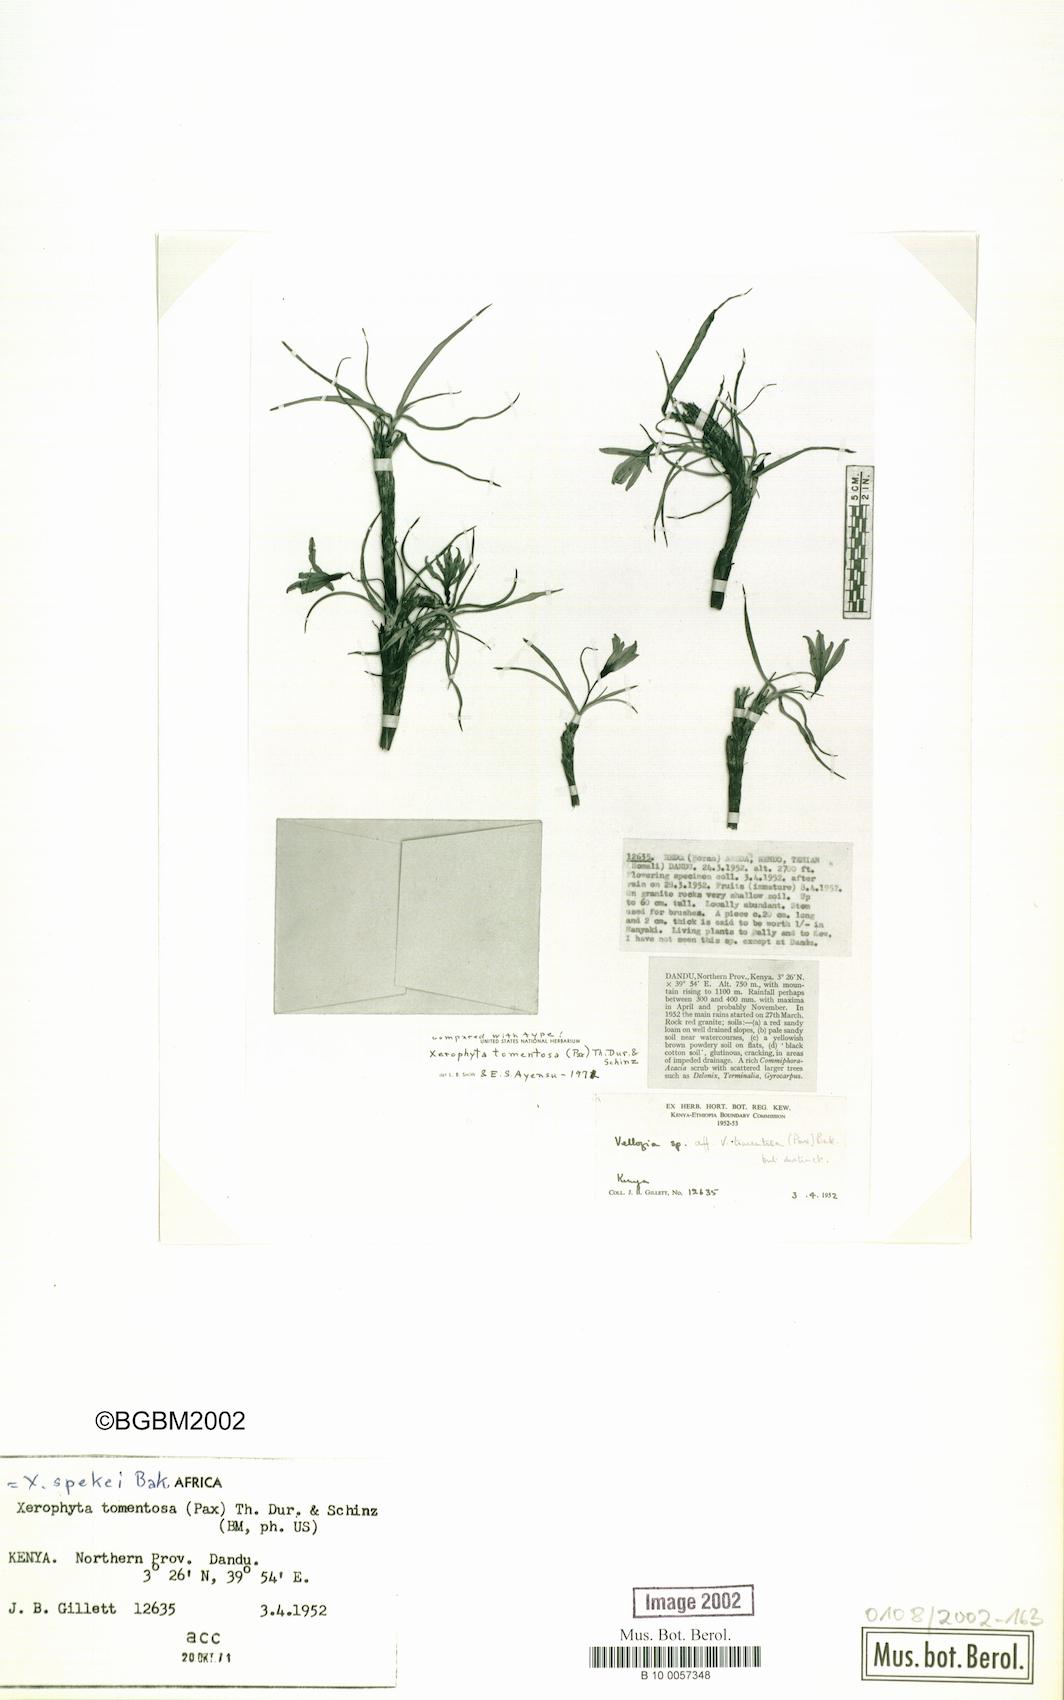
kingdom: Plantae
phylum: Tracheophyta
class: Liliopsida
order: Pandanales
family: Velloziaceae
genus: Xerophyta
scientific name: Xerophyta spekei
